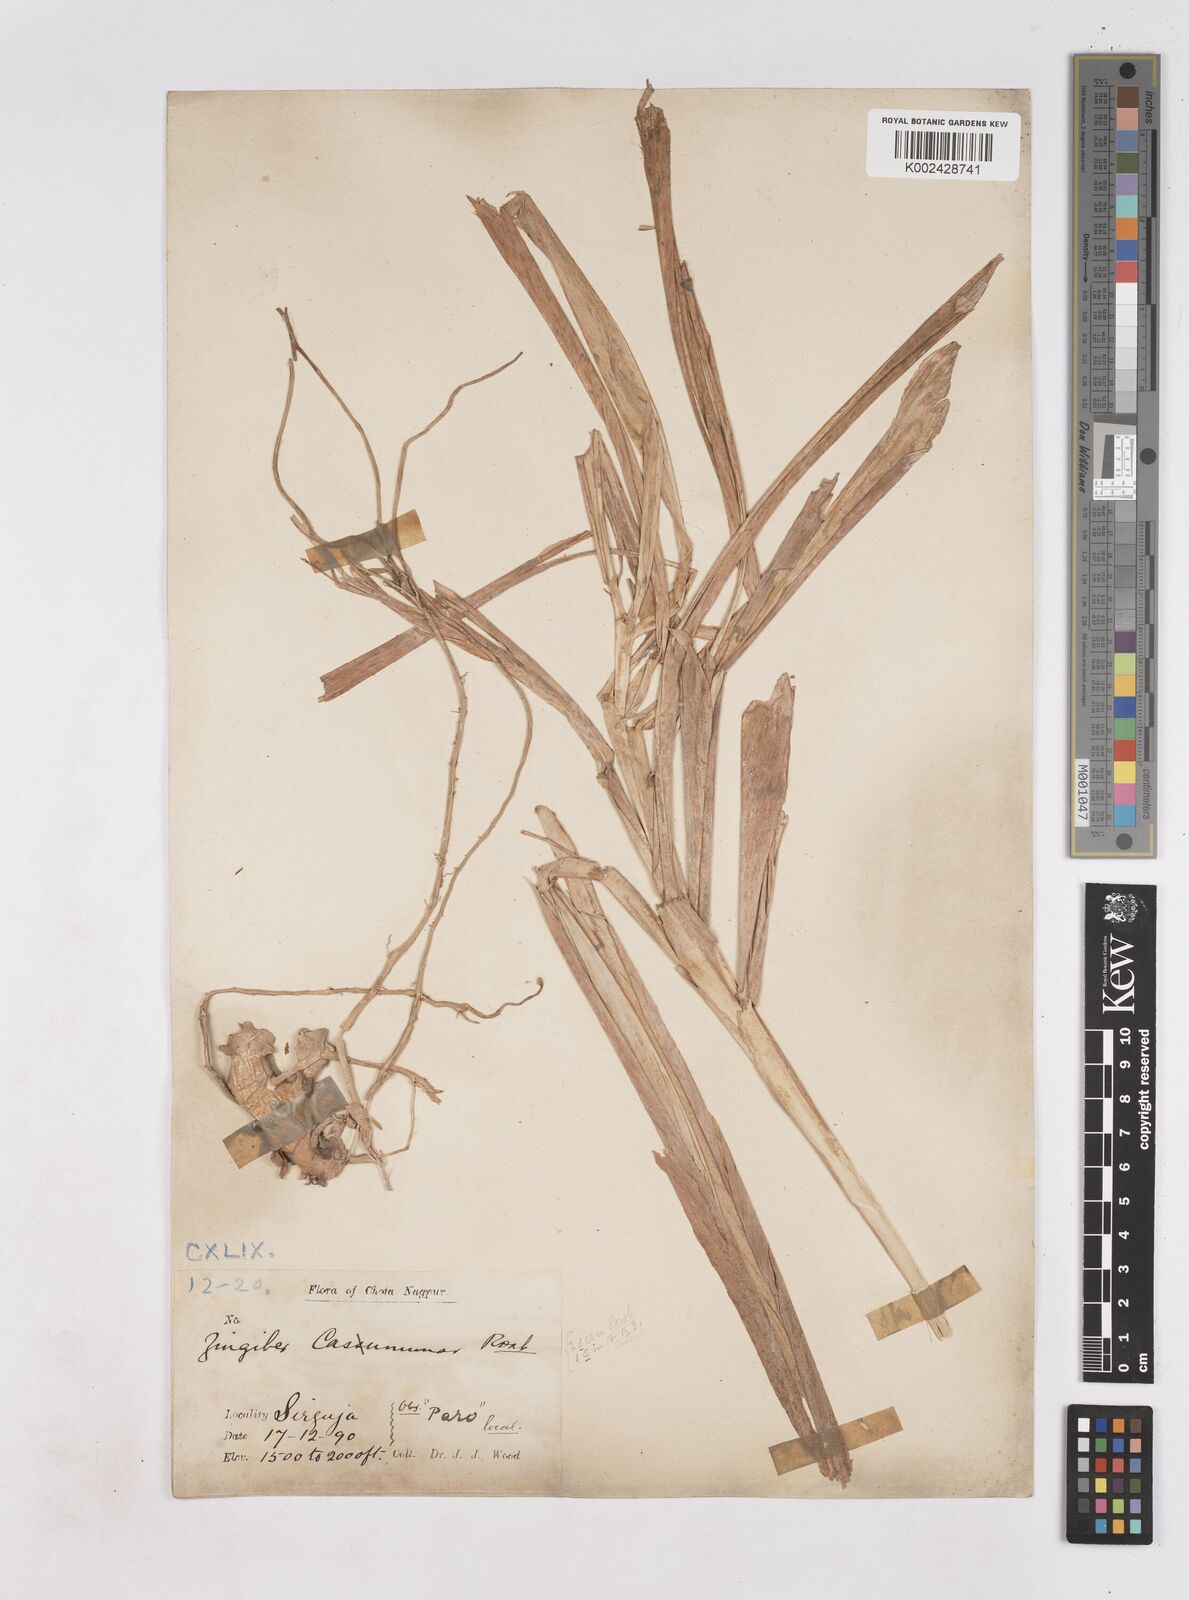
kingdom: Plantae
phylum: Tracheophyta
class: Liliopsida
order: Zingiberales
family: Zingiberaceae
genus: Zingiber
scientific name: Zingiber montanum
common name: Bengal ginger
